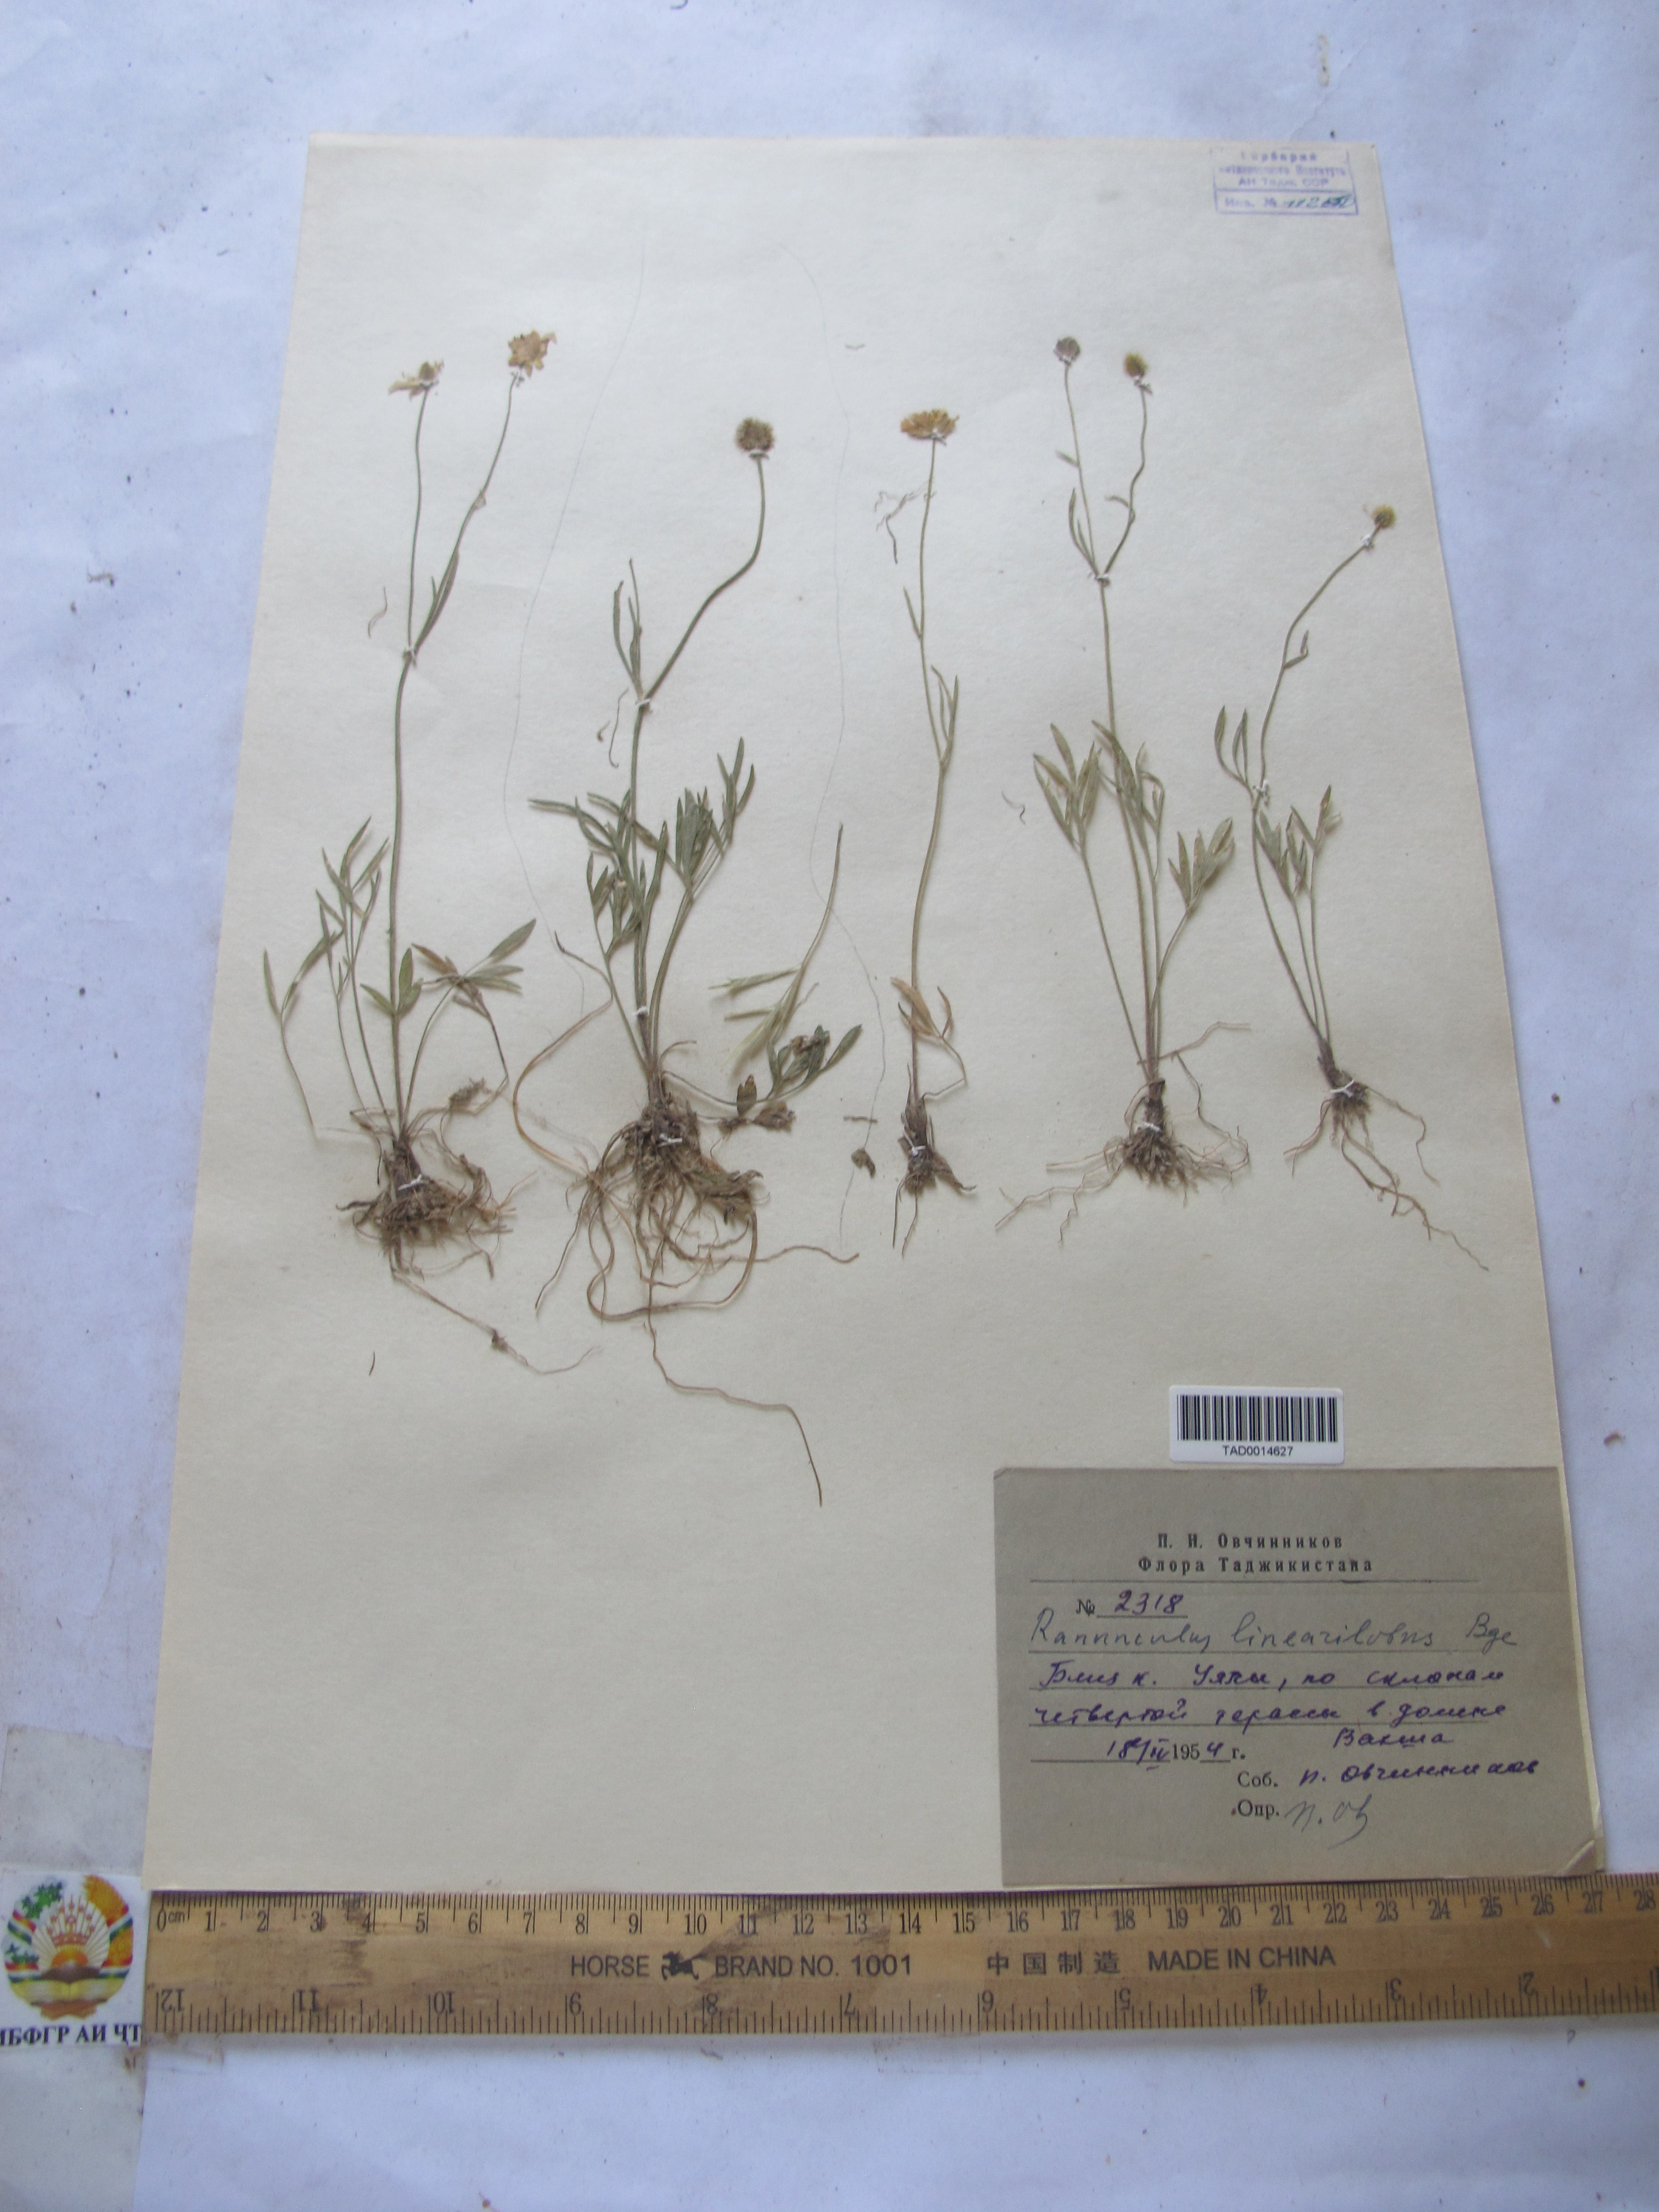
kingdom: Plantae
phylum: Tracheophyta
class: Magnoliopsida
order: Ranunculales
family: Ranunculaceae
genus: Ranunculus
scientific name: Ranunculus linearilobus
